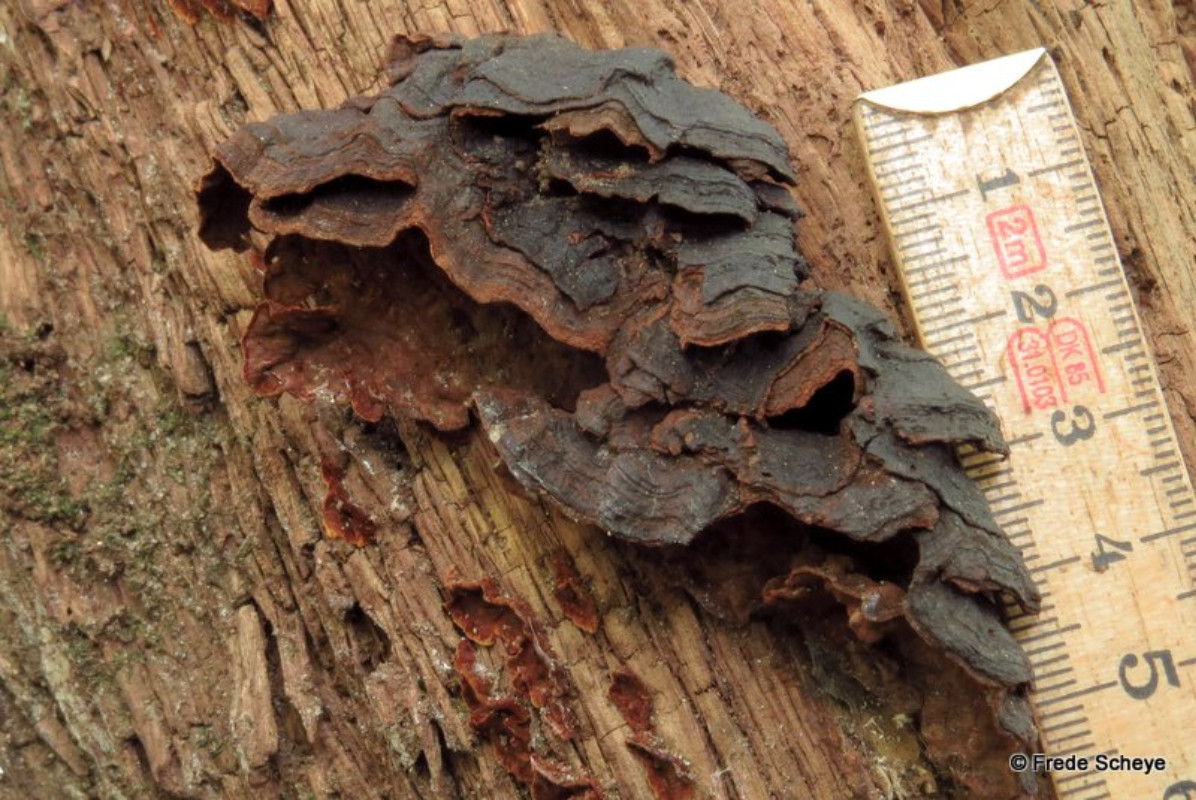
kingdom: Fungi
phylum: Basidiomycota
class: Agaricomycetes
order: Hymenochaetales
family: Hymenochaetaceae
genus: Hymenochaete
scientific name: Hymenochaete rubiginosa
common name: stiv ruslædersvamp
